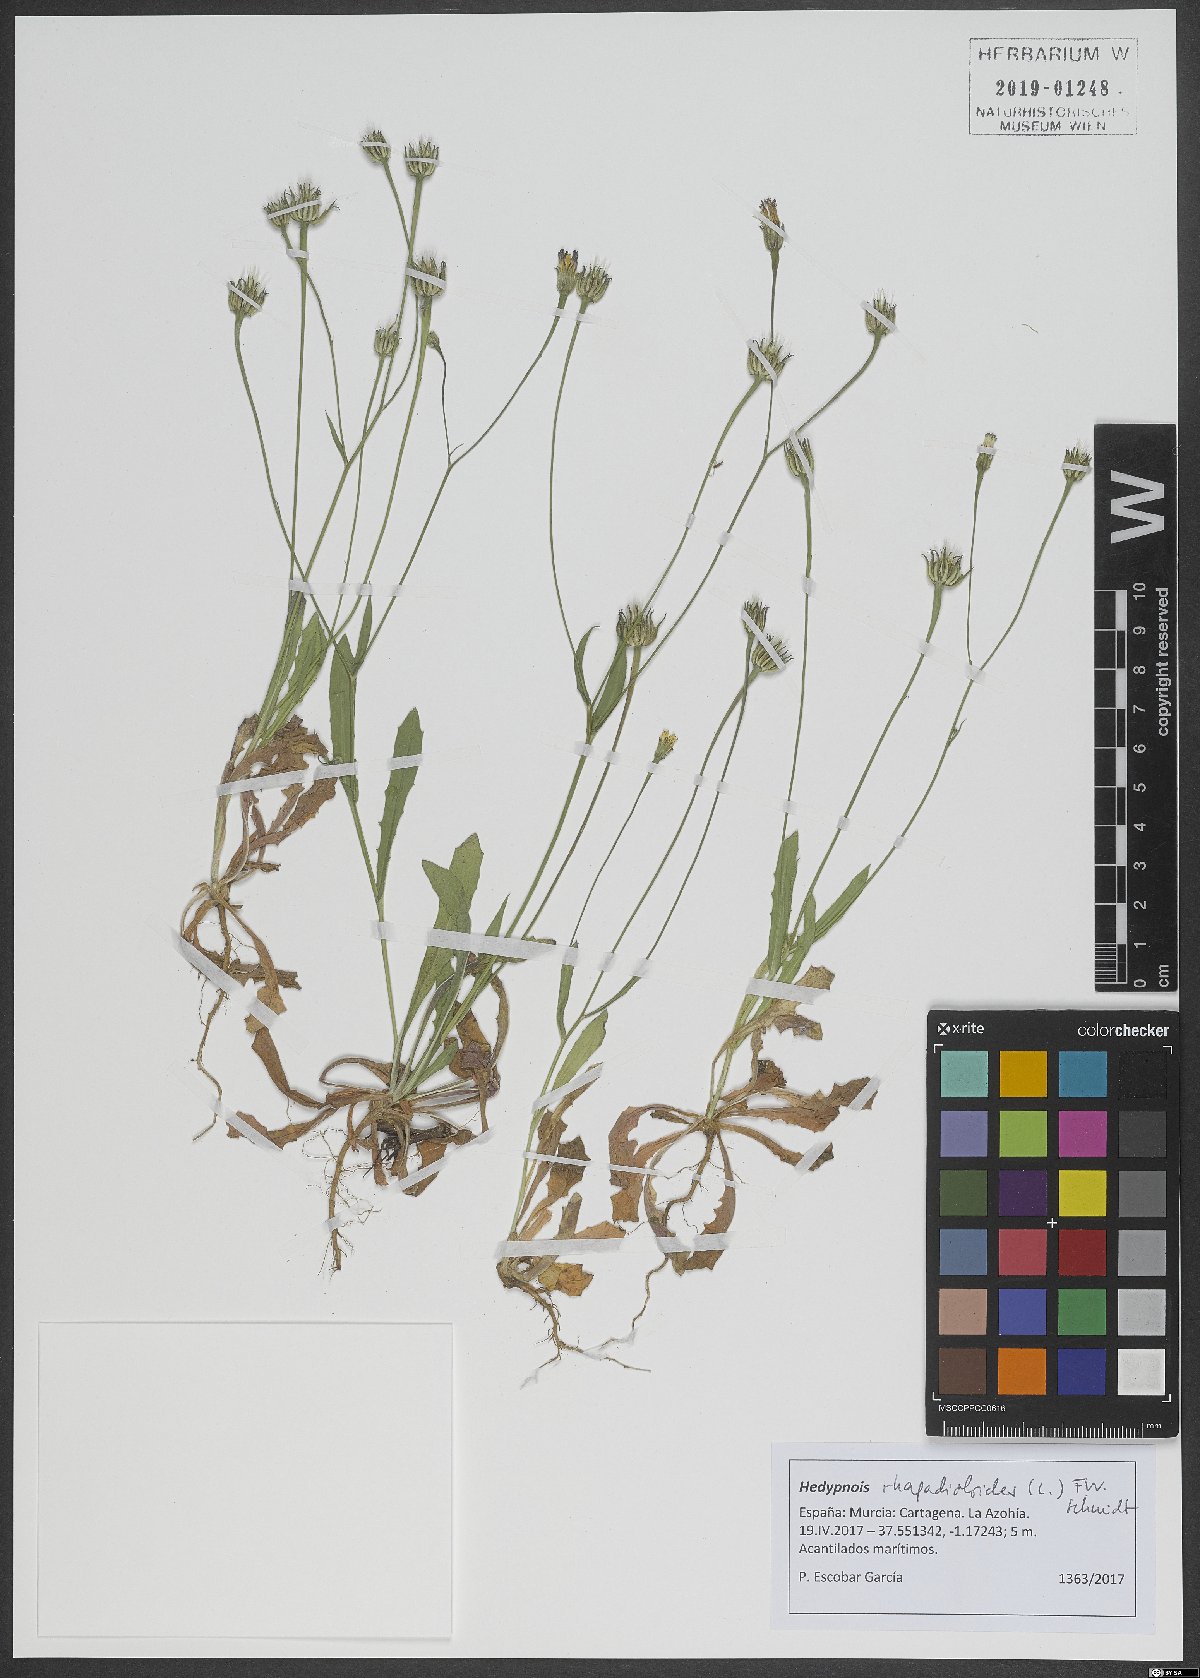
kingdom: Plantae
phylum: Tracheophyta
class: Magnoliopsida
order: Asterales
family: Asteraceae
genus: Hedypnois
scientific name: Hedypnois rhagadioloides
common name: Cretan weed
